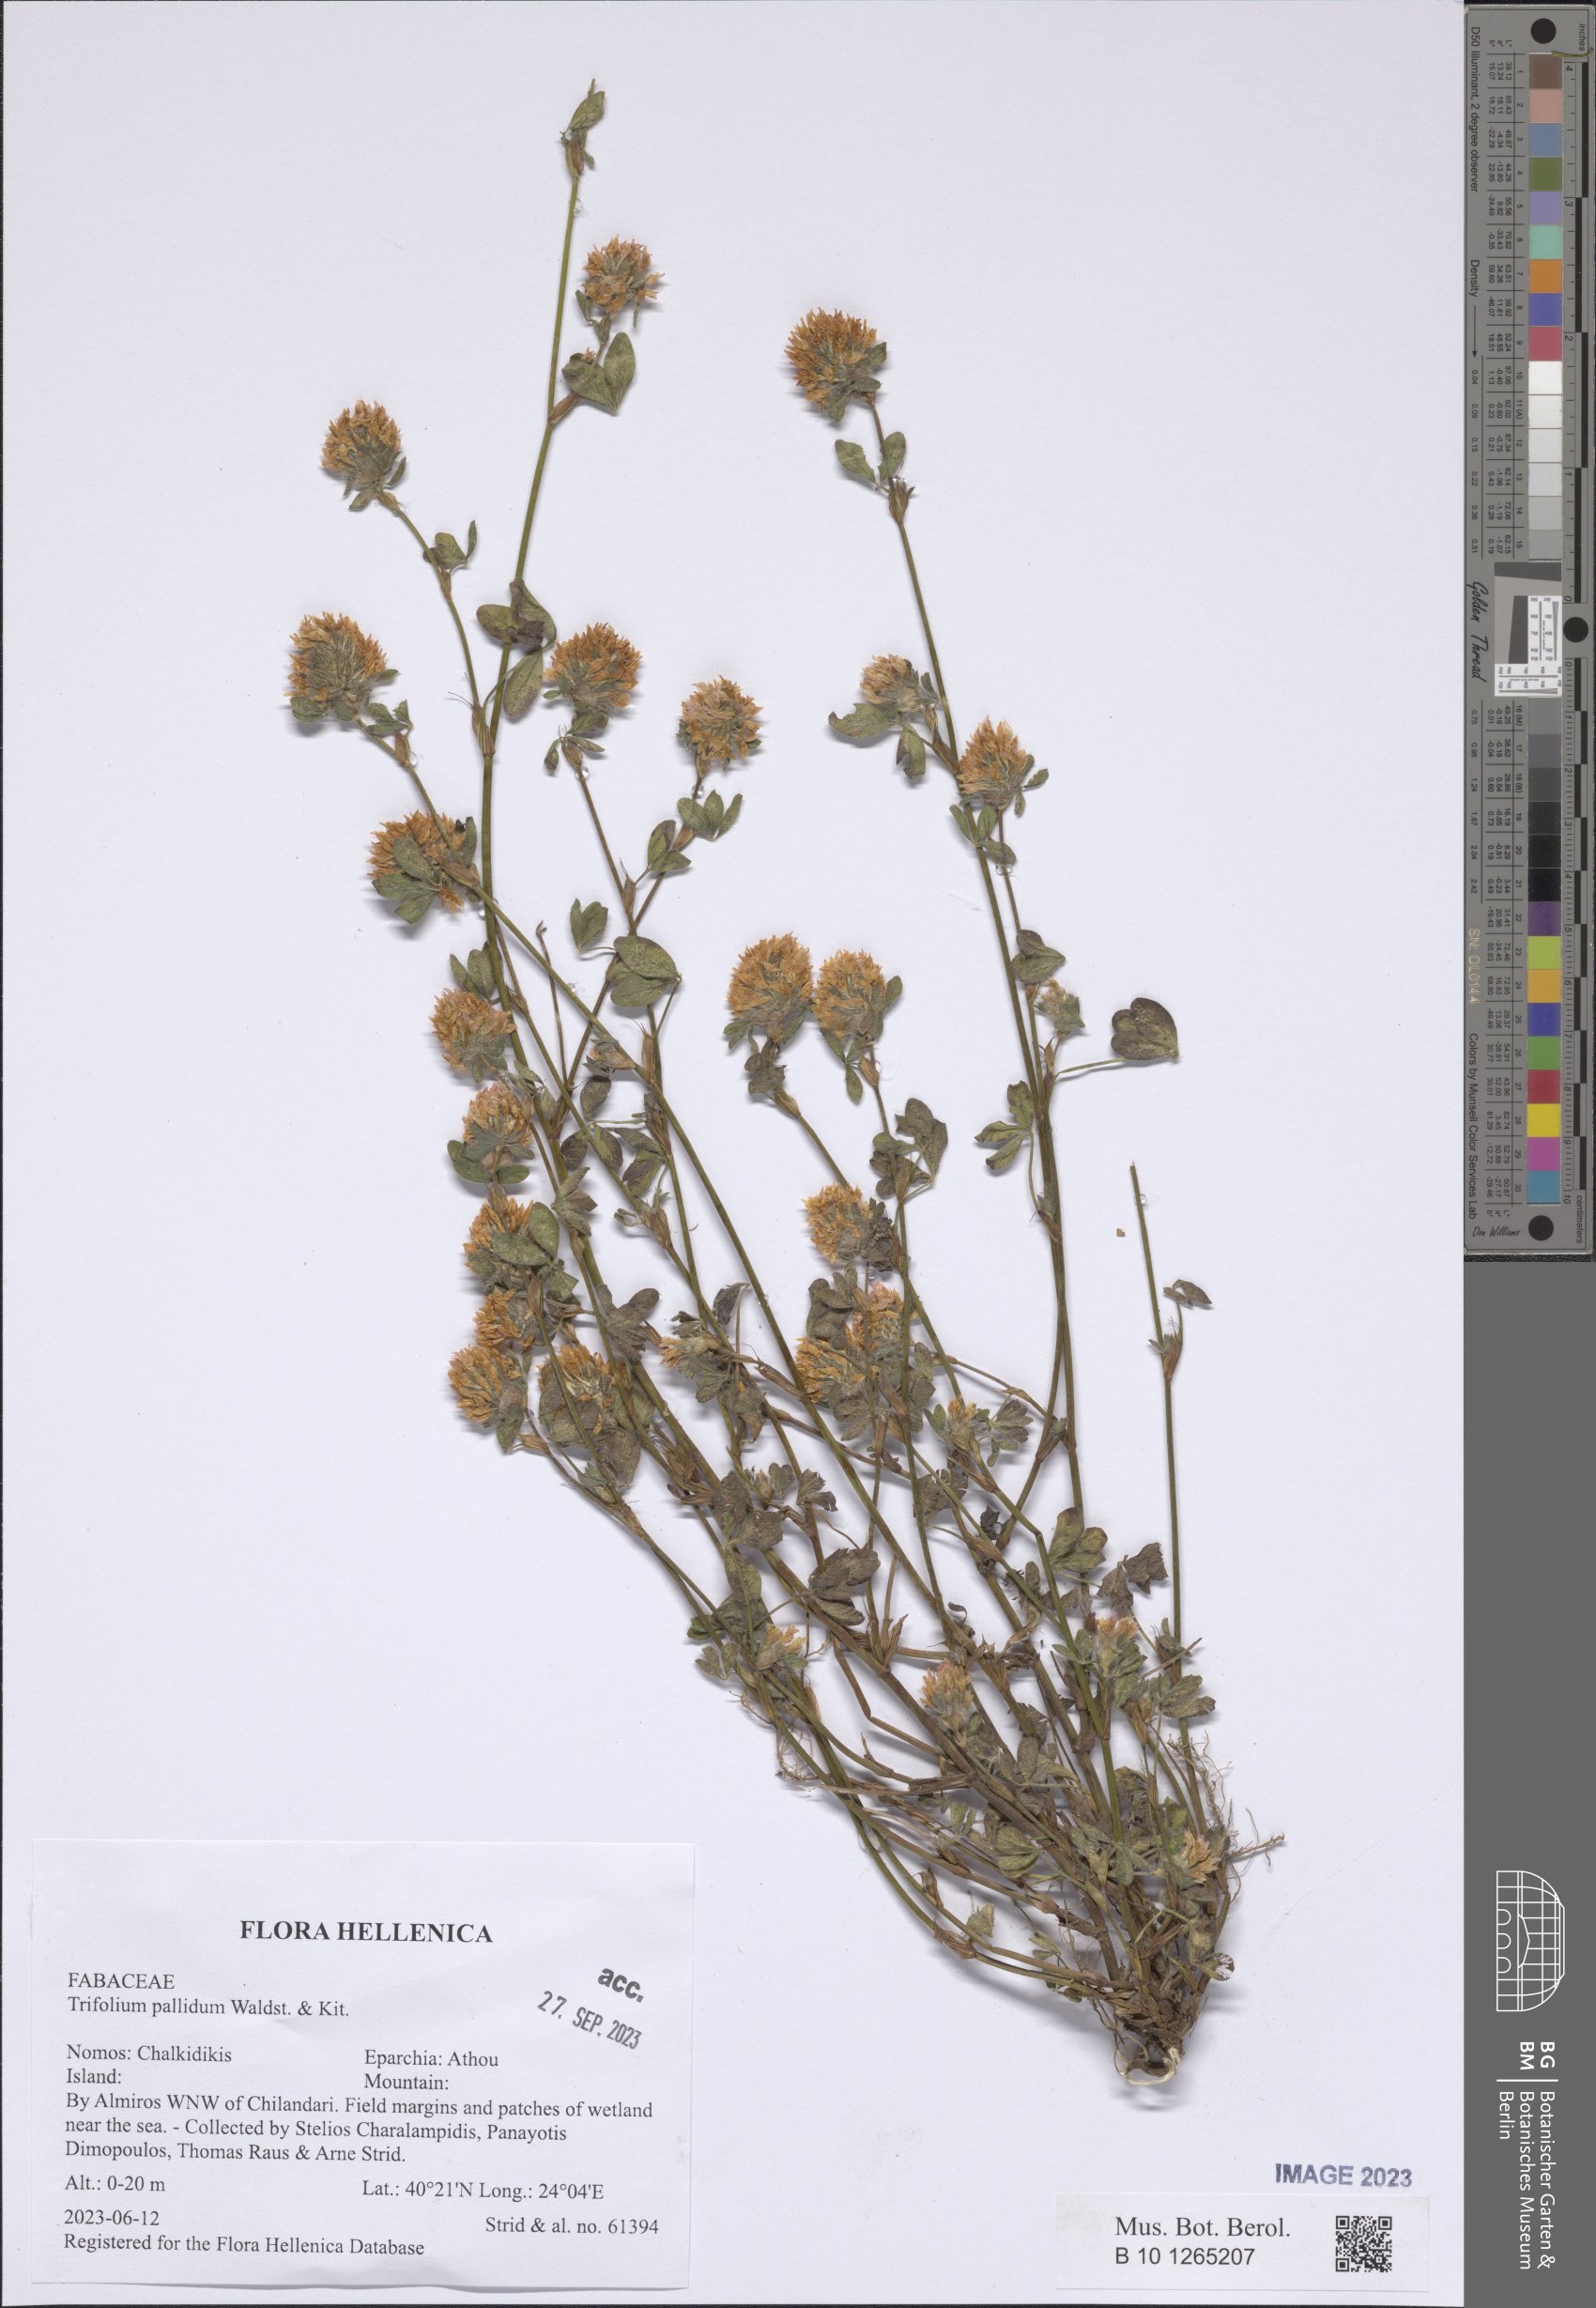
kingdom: Plantae
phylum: Tracheophyta
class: Magnoliopsida
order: Fabales
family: Fabaceae
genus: Trifolium
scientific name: Trifolium pallidum
